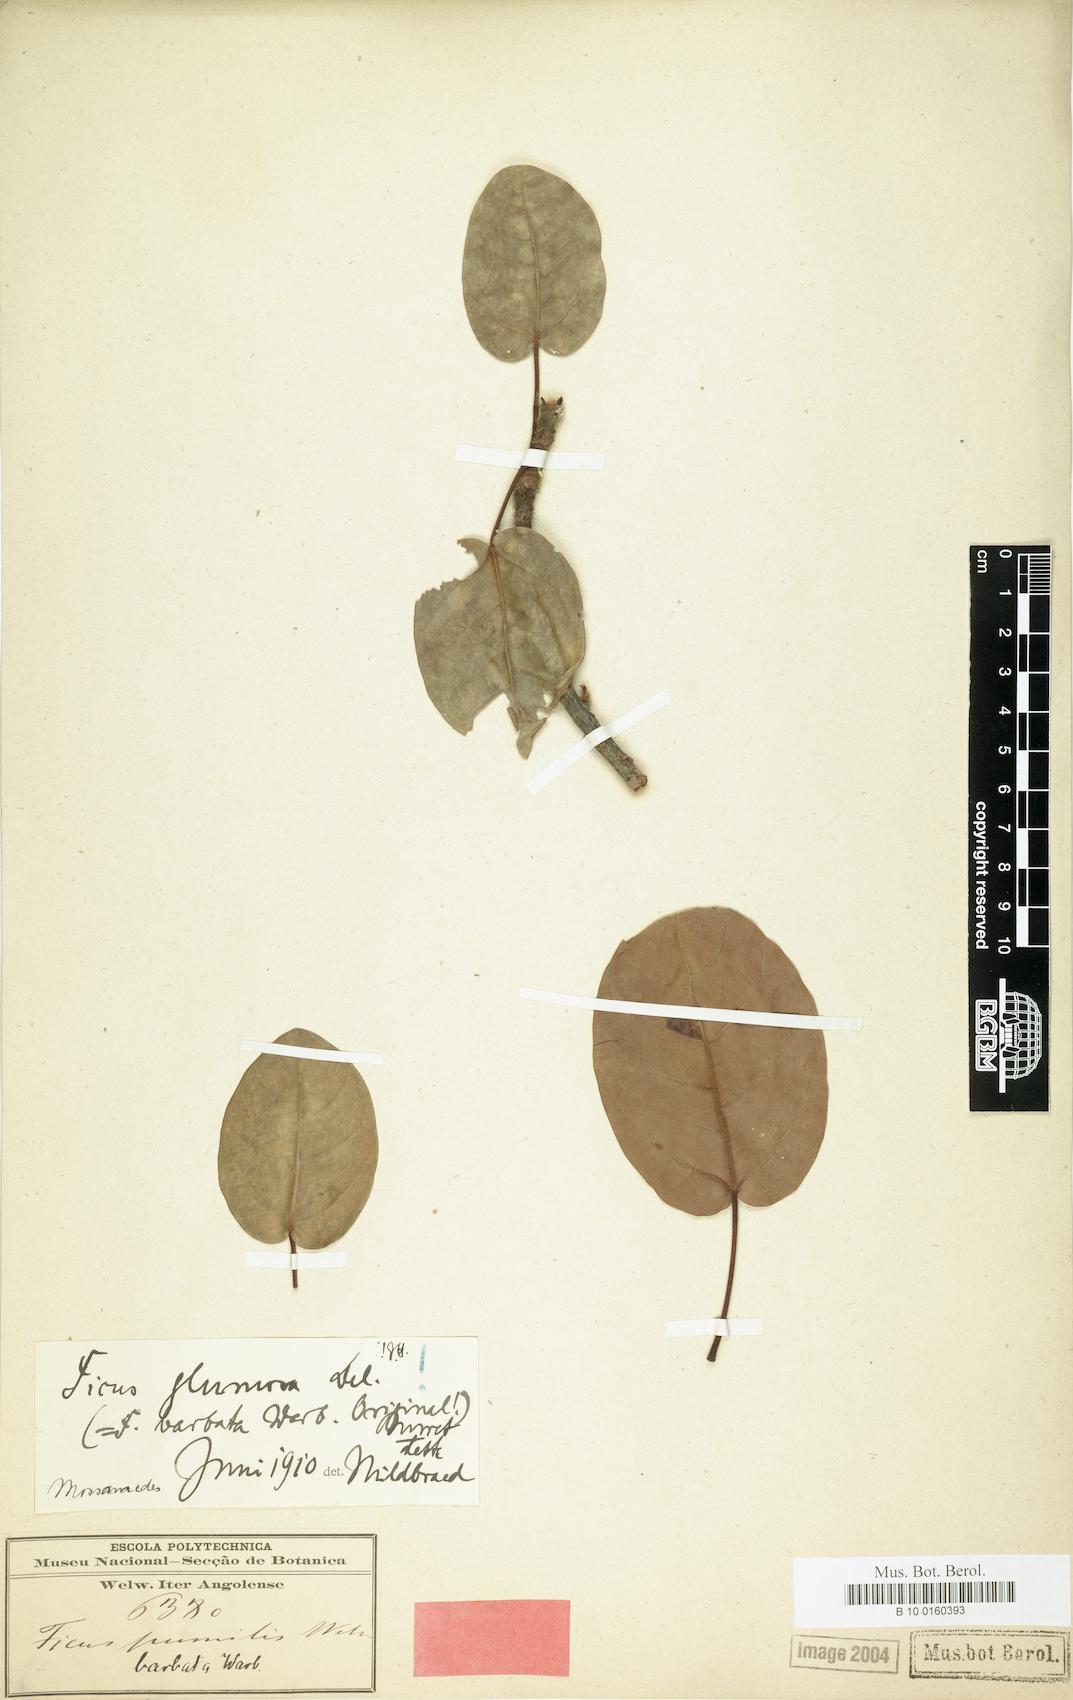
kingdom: Plantae
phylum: Tracheophyta
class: Magnoliopsida
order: Rosales
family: Moraceae
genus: Ficus
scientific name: Ficus glumosa
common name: Hairy rock fig
